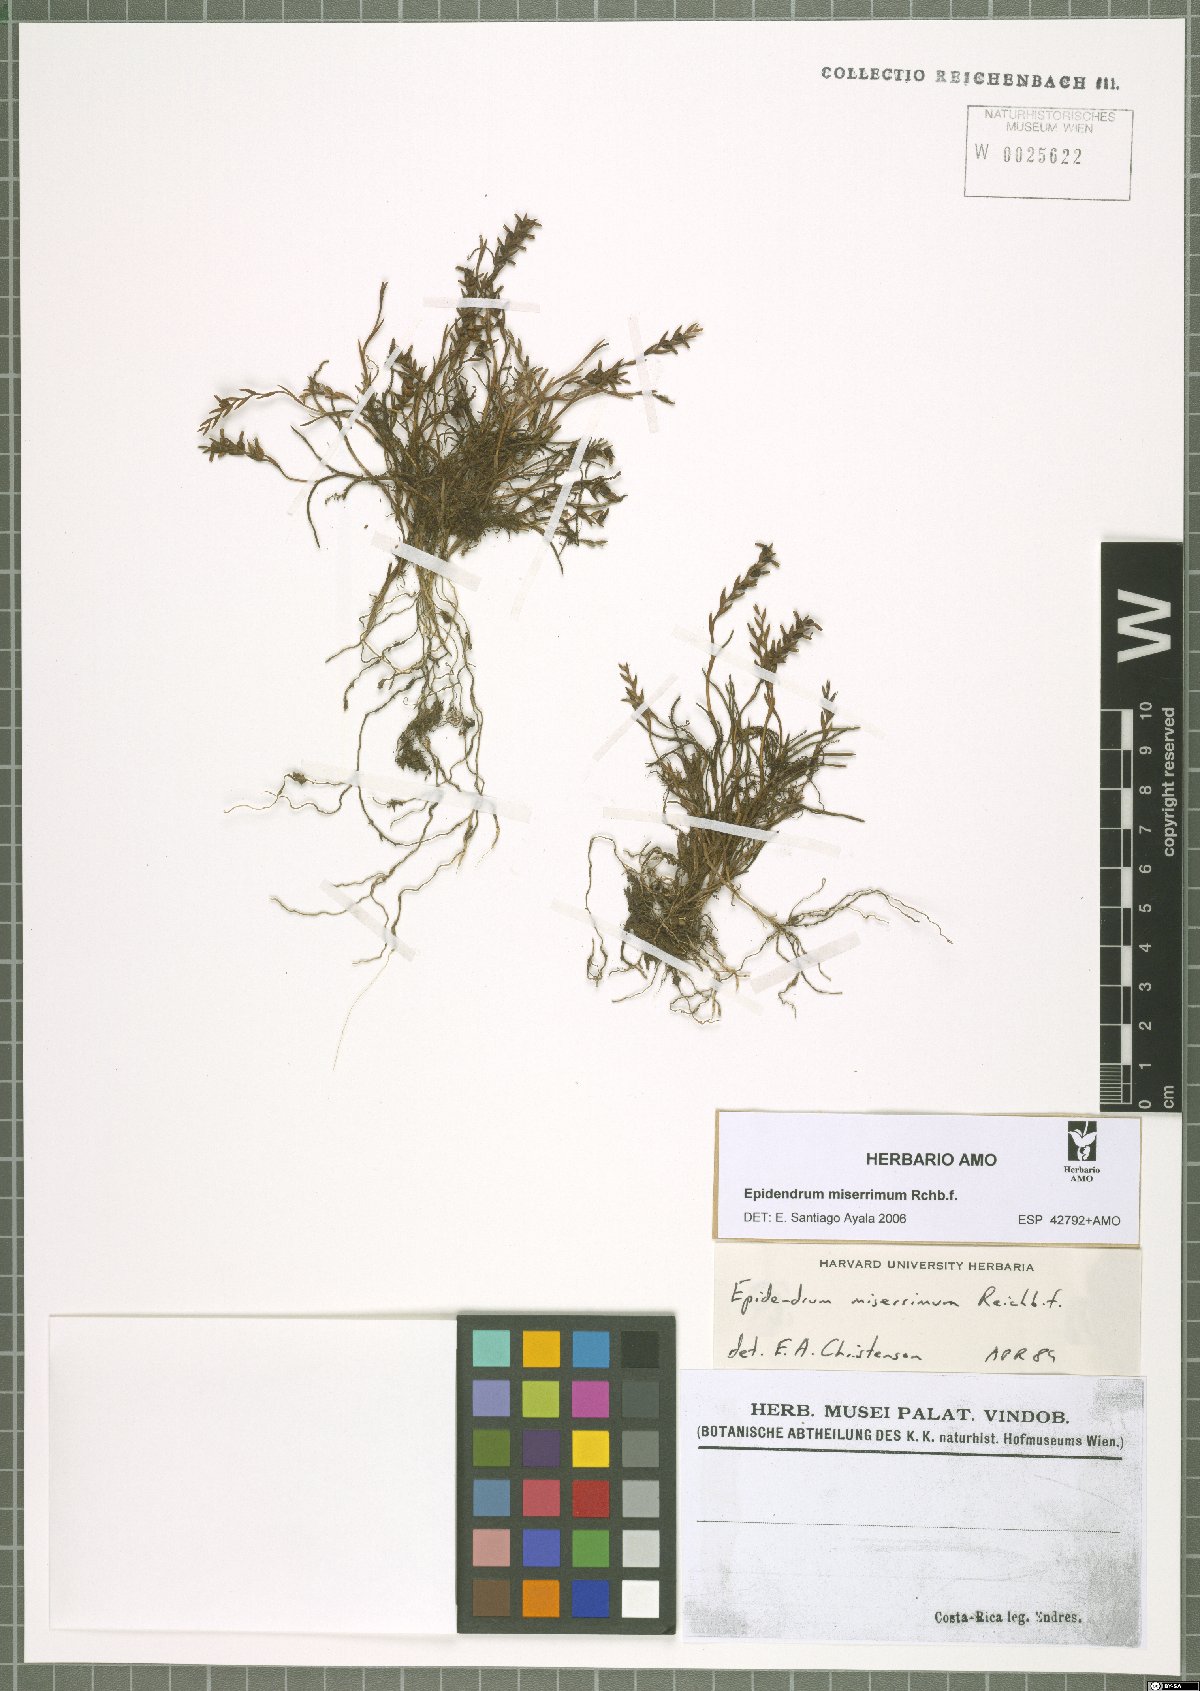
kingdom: Plantae
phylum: Tracheophyta
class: Liliopsida
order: Asparagales
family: Orchidaceae
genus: Epidendrum
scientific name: Epidendrum miserrimum
